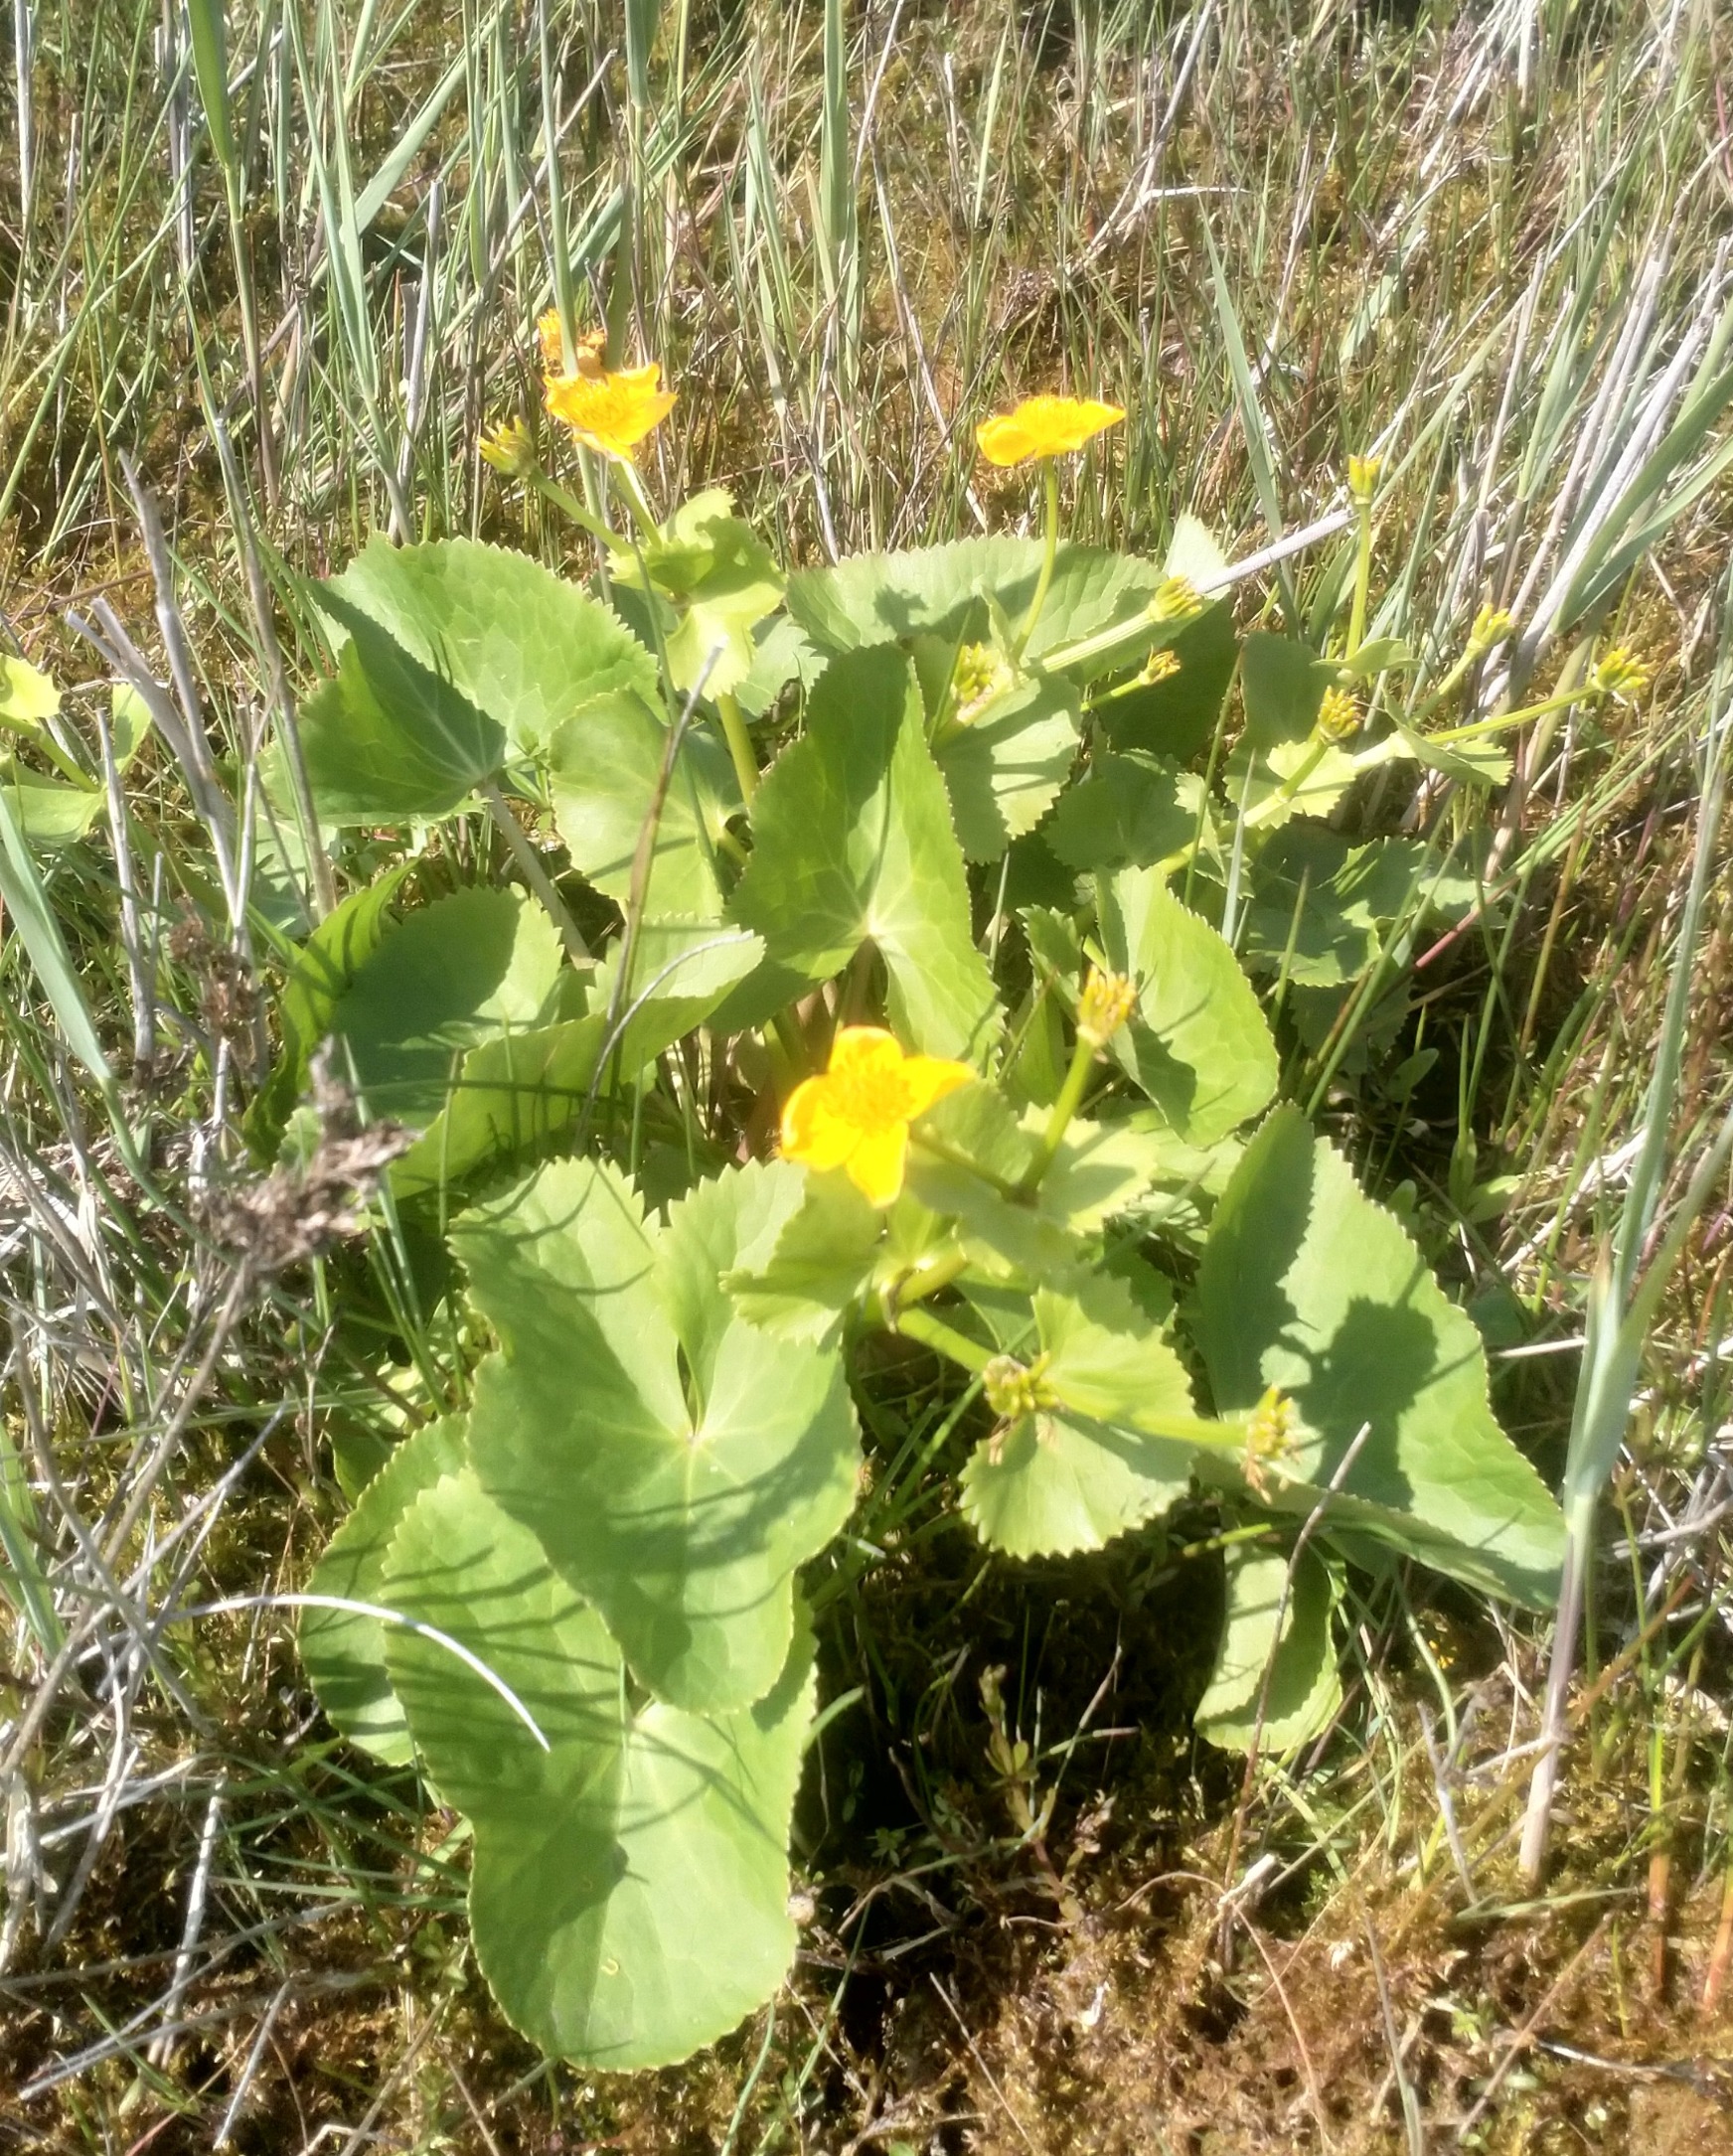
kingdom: Plantae
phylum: Tracheophyta
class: Magnoliopsida
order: Ranunculales
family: Ranunculaceae
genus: Caltha
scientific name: Caltha palustris
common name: Eng-kabbeleje
